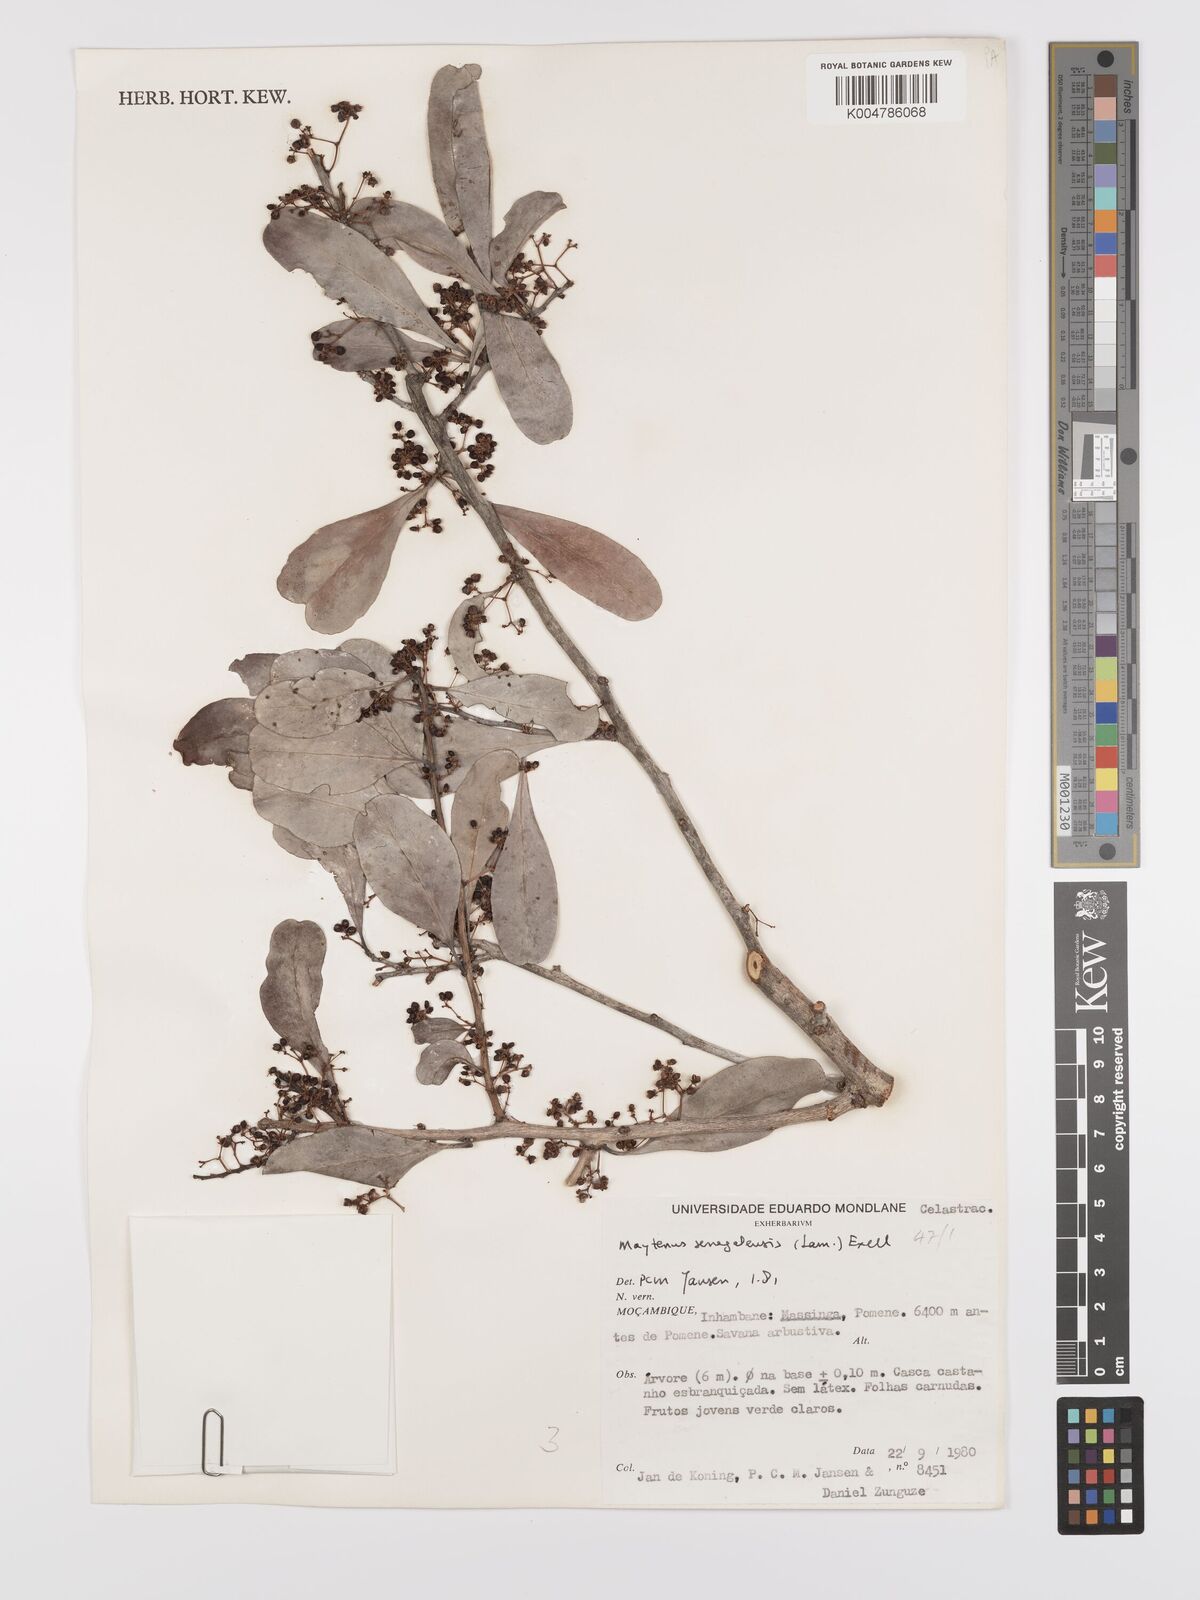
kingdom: Plantae
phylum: Tracheophyta
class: Magnoliopsida
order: Celastrales
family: Celastraceae
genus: Gymnosporia
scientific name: Gymnosporia senegalensis
